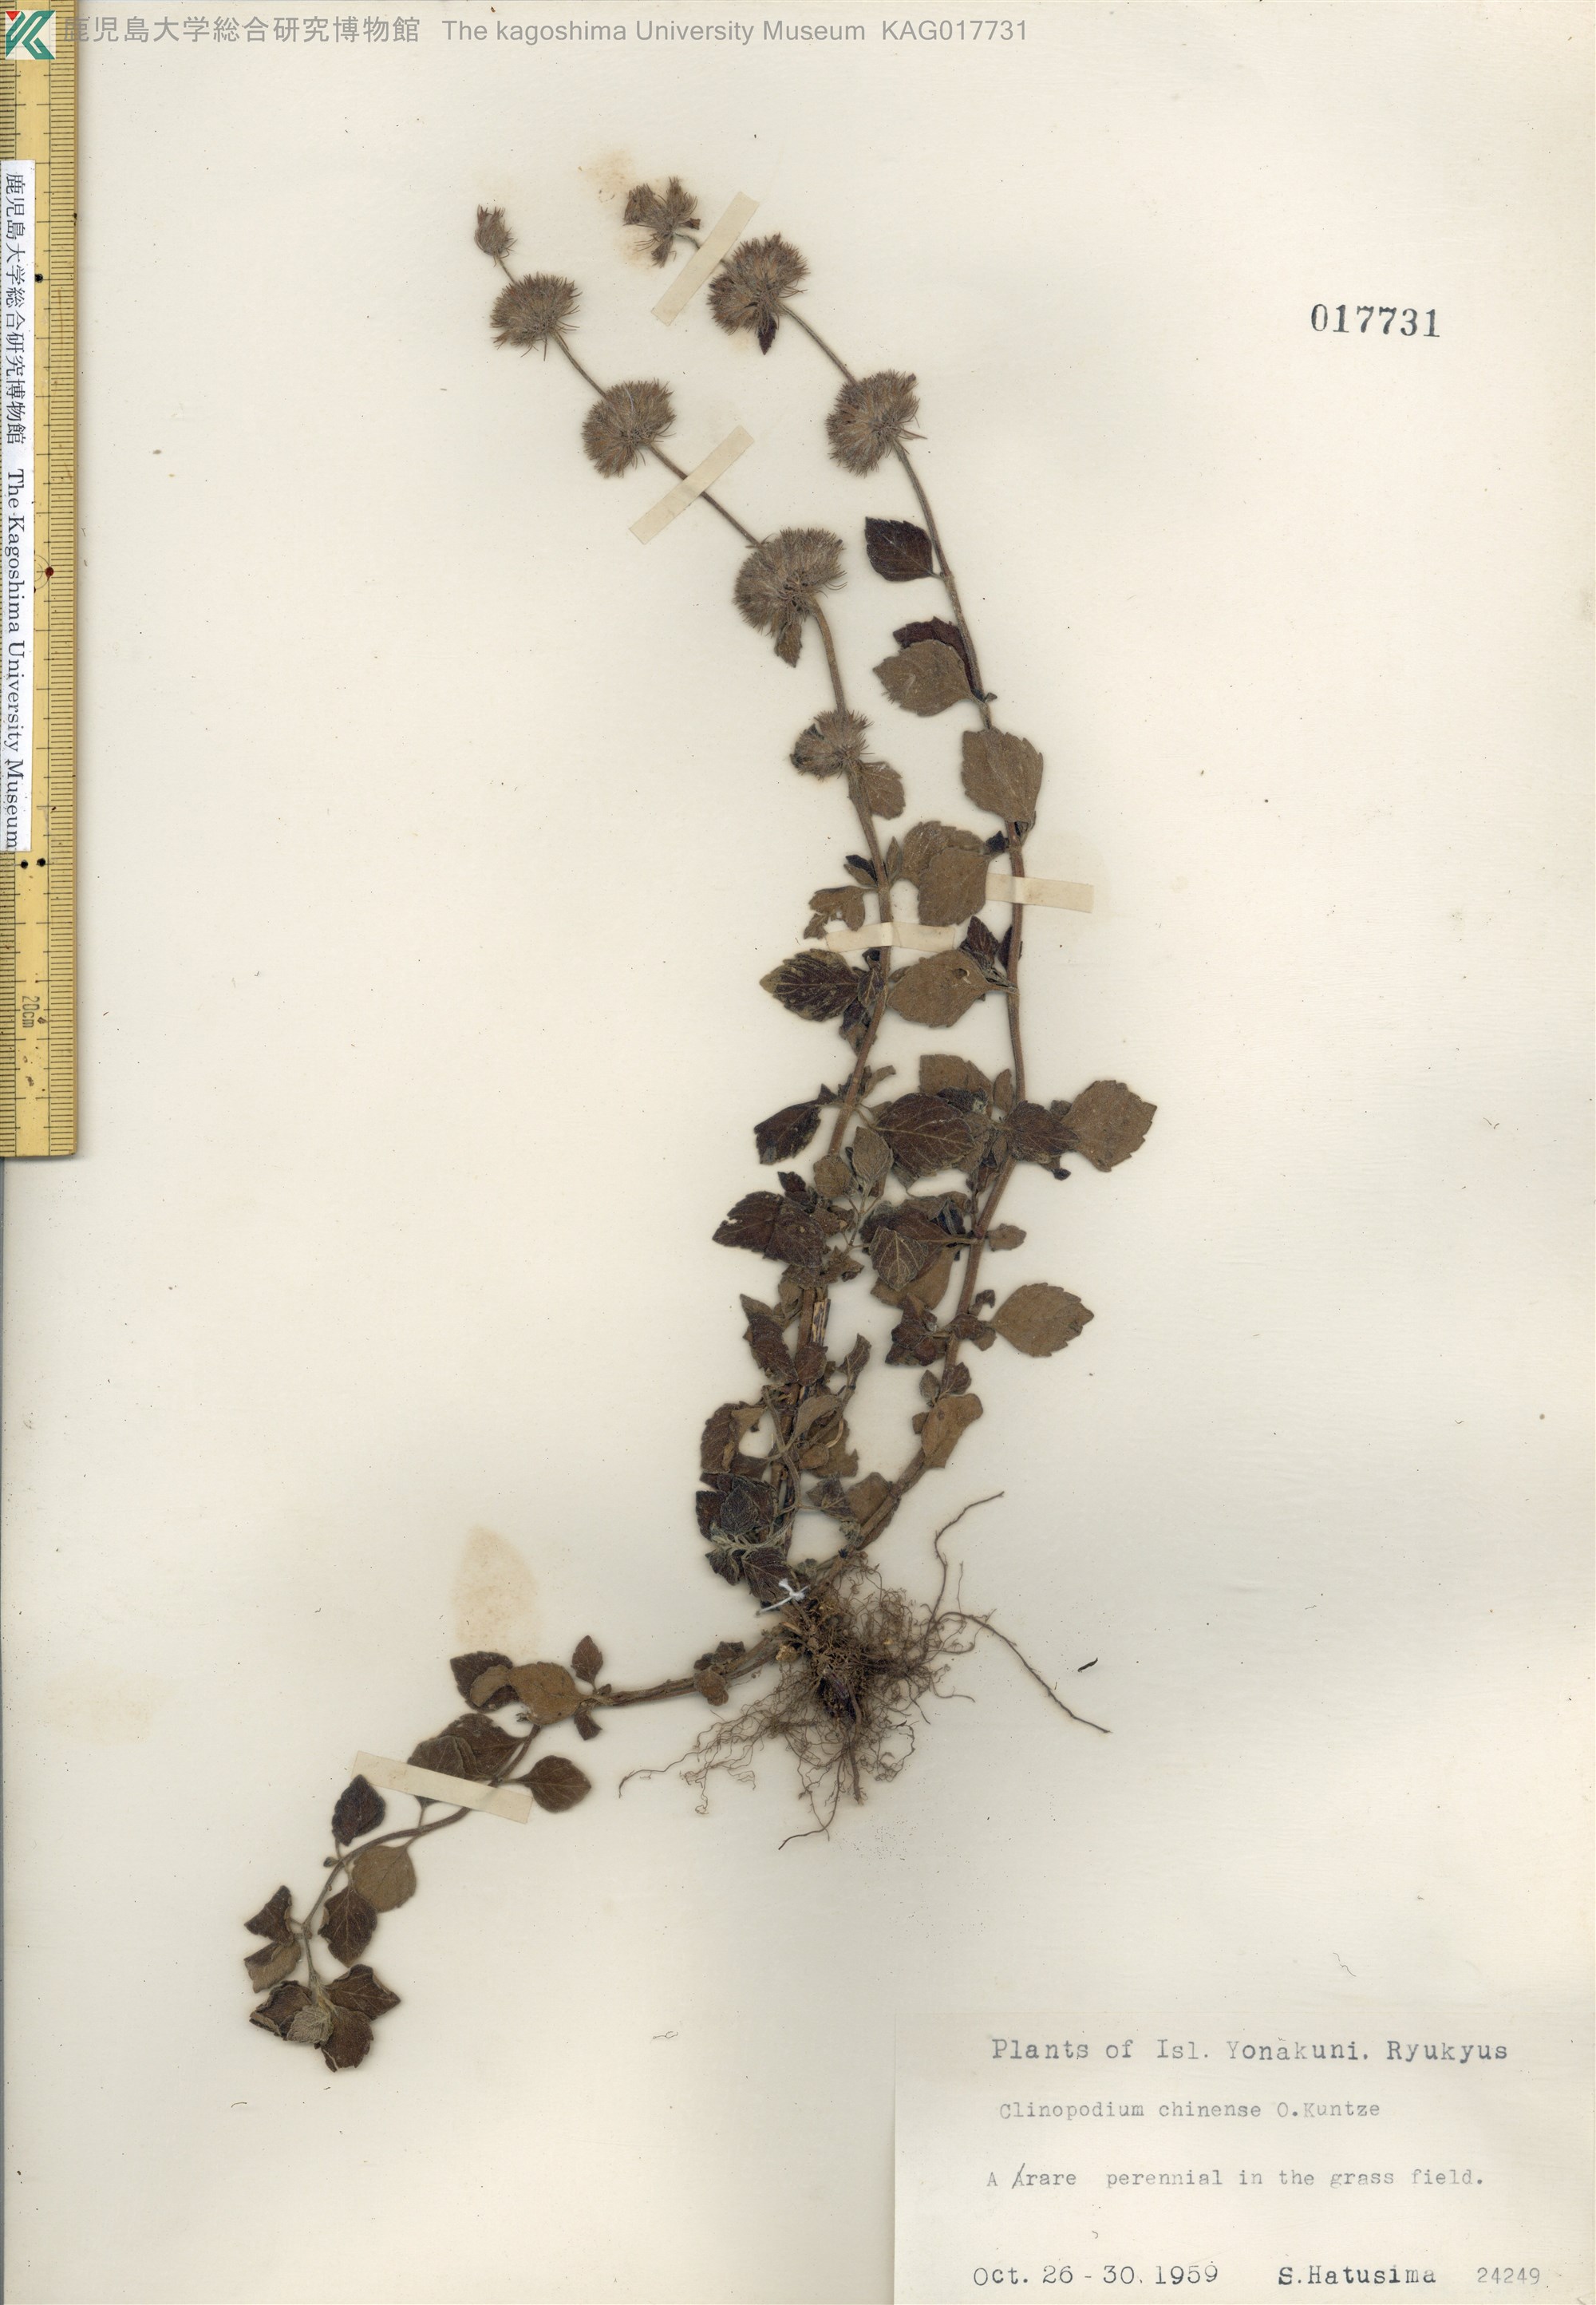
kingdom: Plantae
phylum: Tracheophyta
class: Magnoliopsida
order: Lamiales
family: Lamiaceae
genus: Clinopodium
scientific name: Clinopodium chinense
